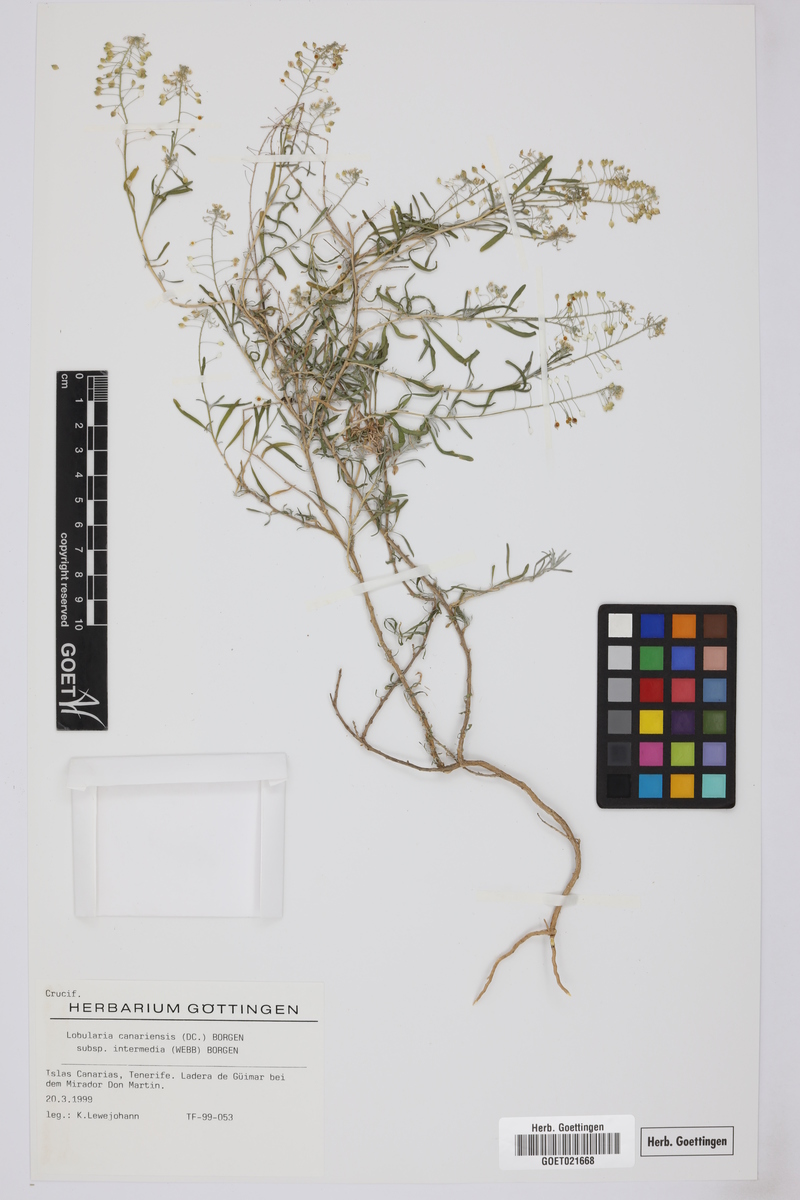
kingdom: Plantae
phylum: Tracheophyta
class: Magnoliopsida
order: Brassicales
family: Brassicaceae
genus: Lobularia
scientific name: Lobularia canariensis
